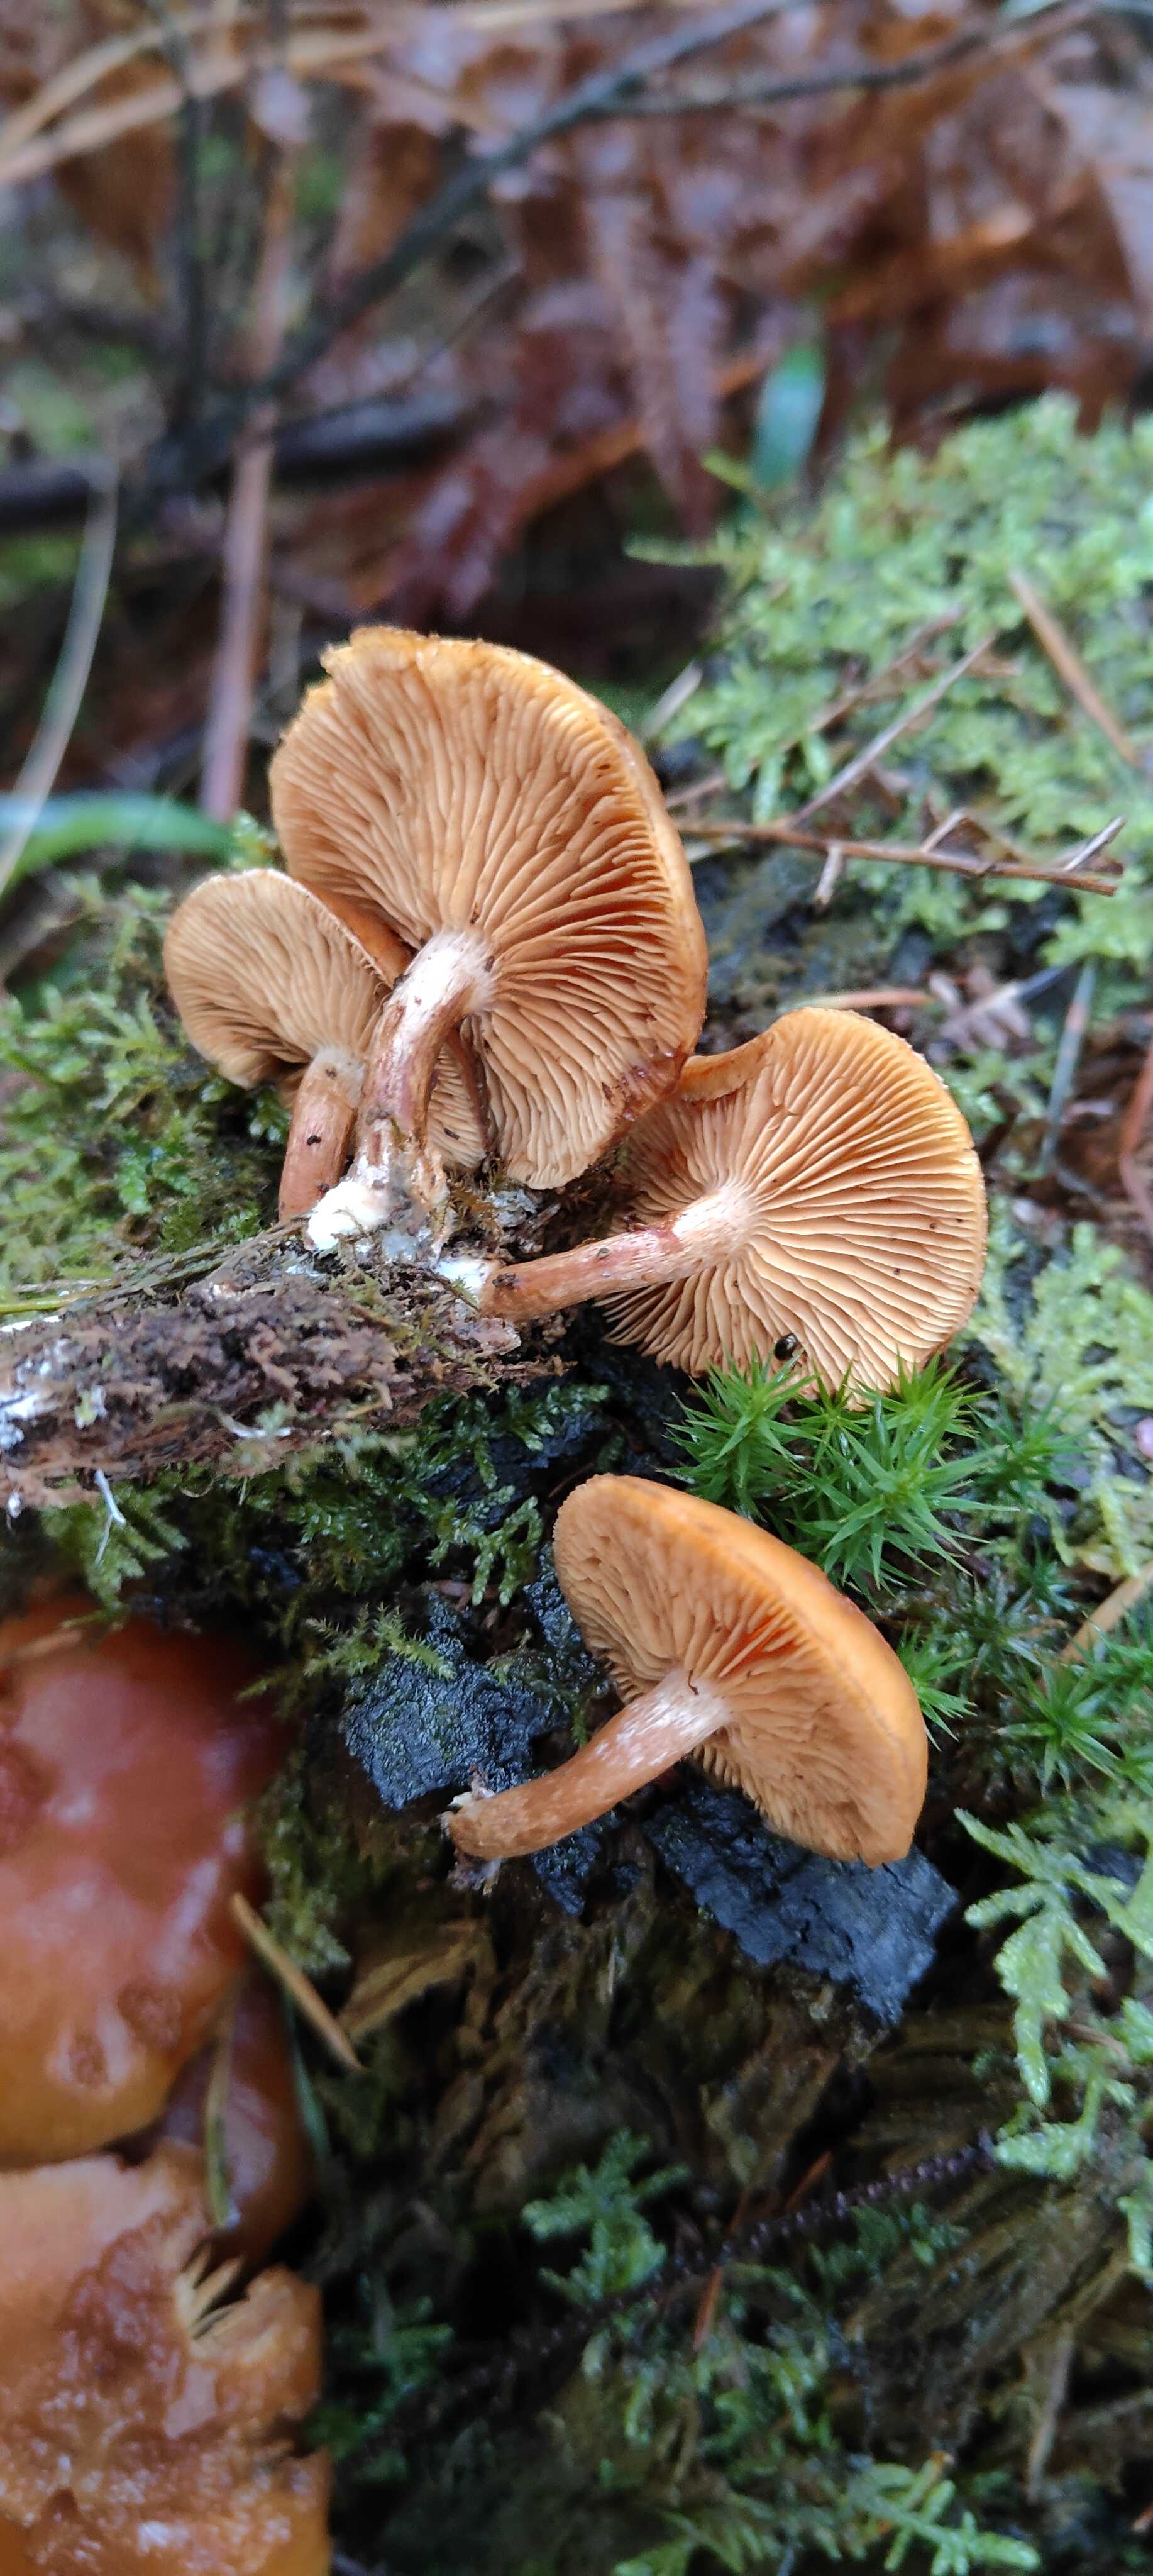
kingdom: Fungi
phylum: Basidiomycota
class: Agaricomycetes
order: Agaricales
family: Hymenogastraceae
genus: Gymnopilus
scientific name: Gymnopilus penetrans
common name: plettet flammehat
